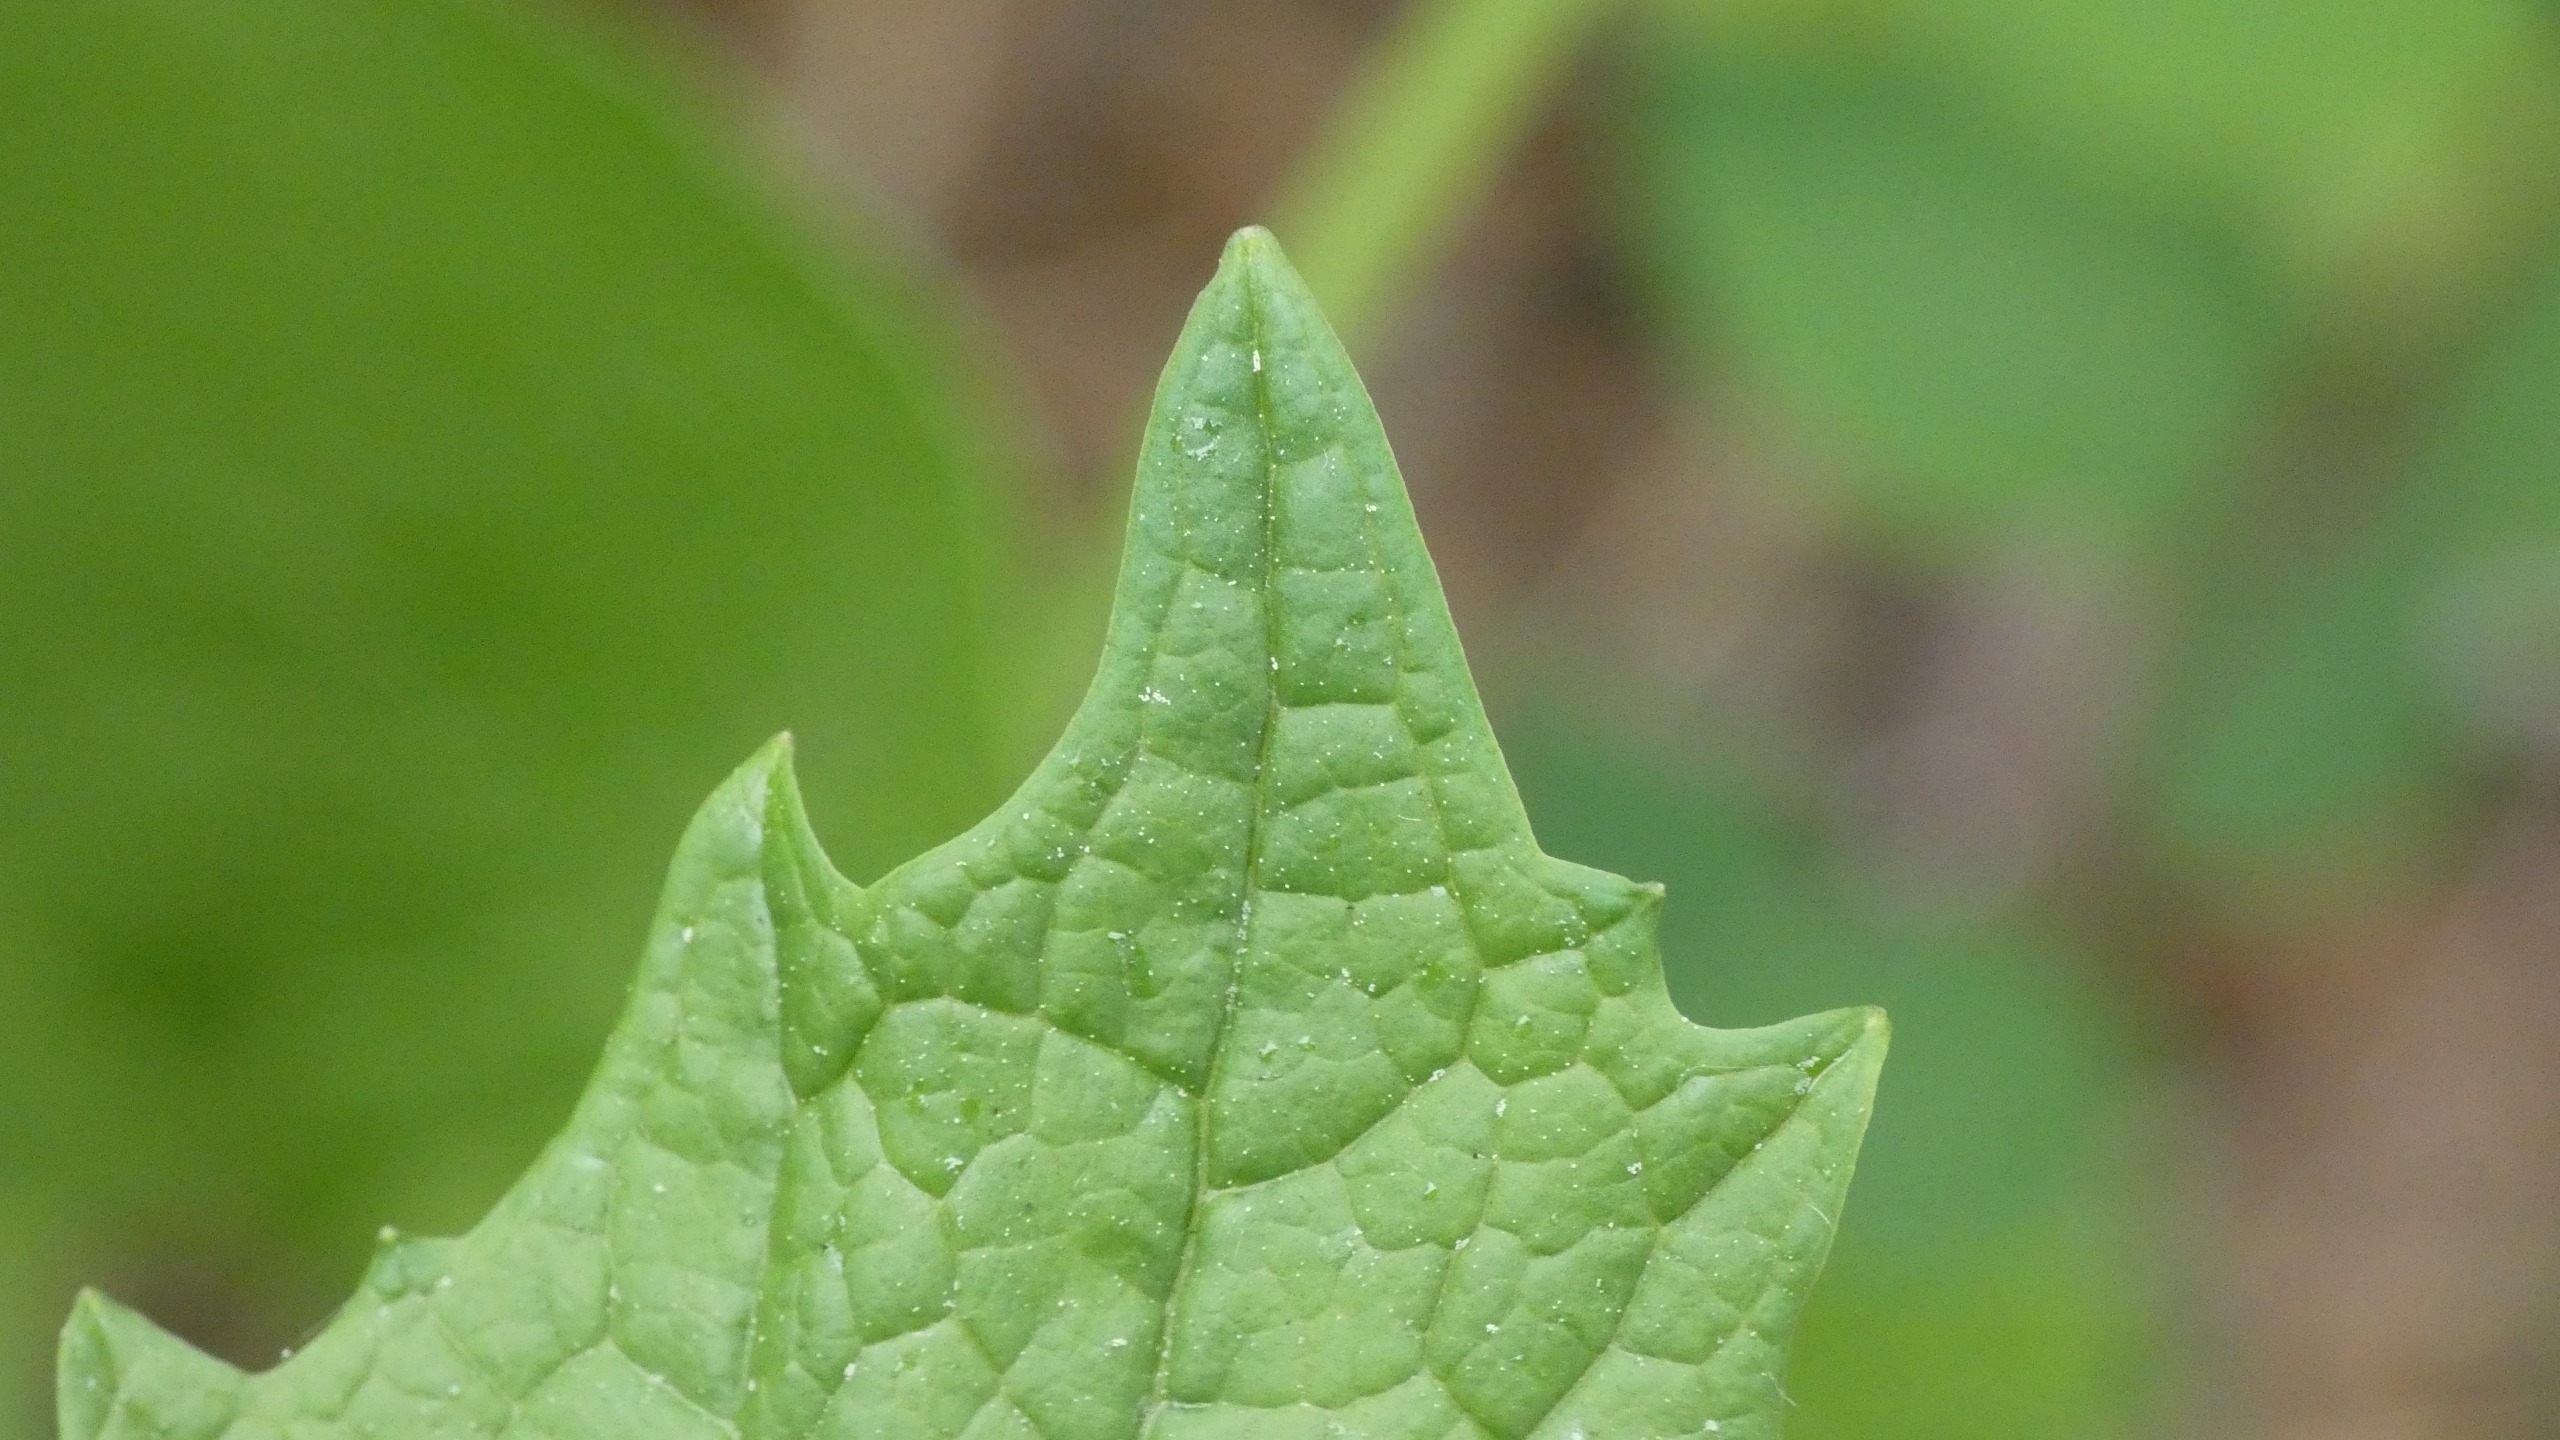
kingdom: Plantae
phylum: Tracheophyta
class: Magnoliopsida
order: Brassicales
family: Brassicaceae
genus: Alliaria
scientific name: Alliaria petiolata
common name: Løgkarse
